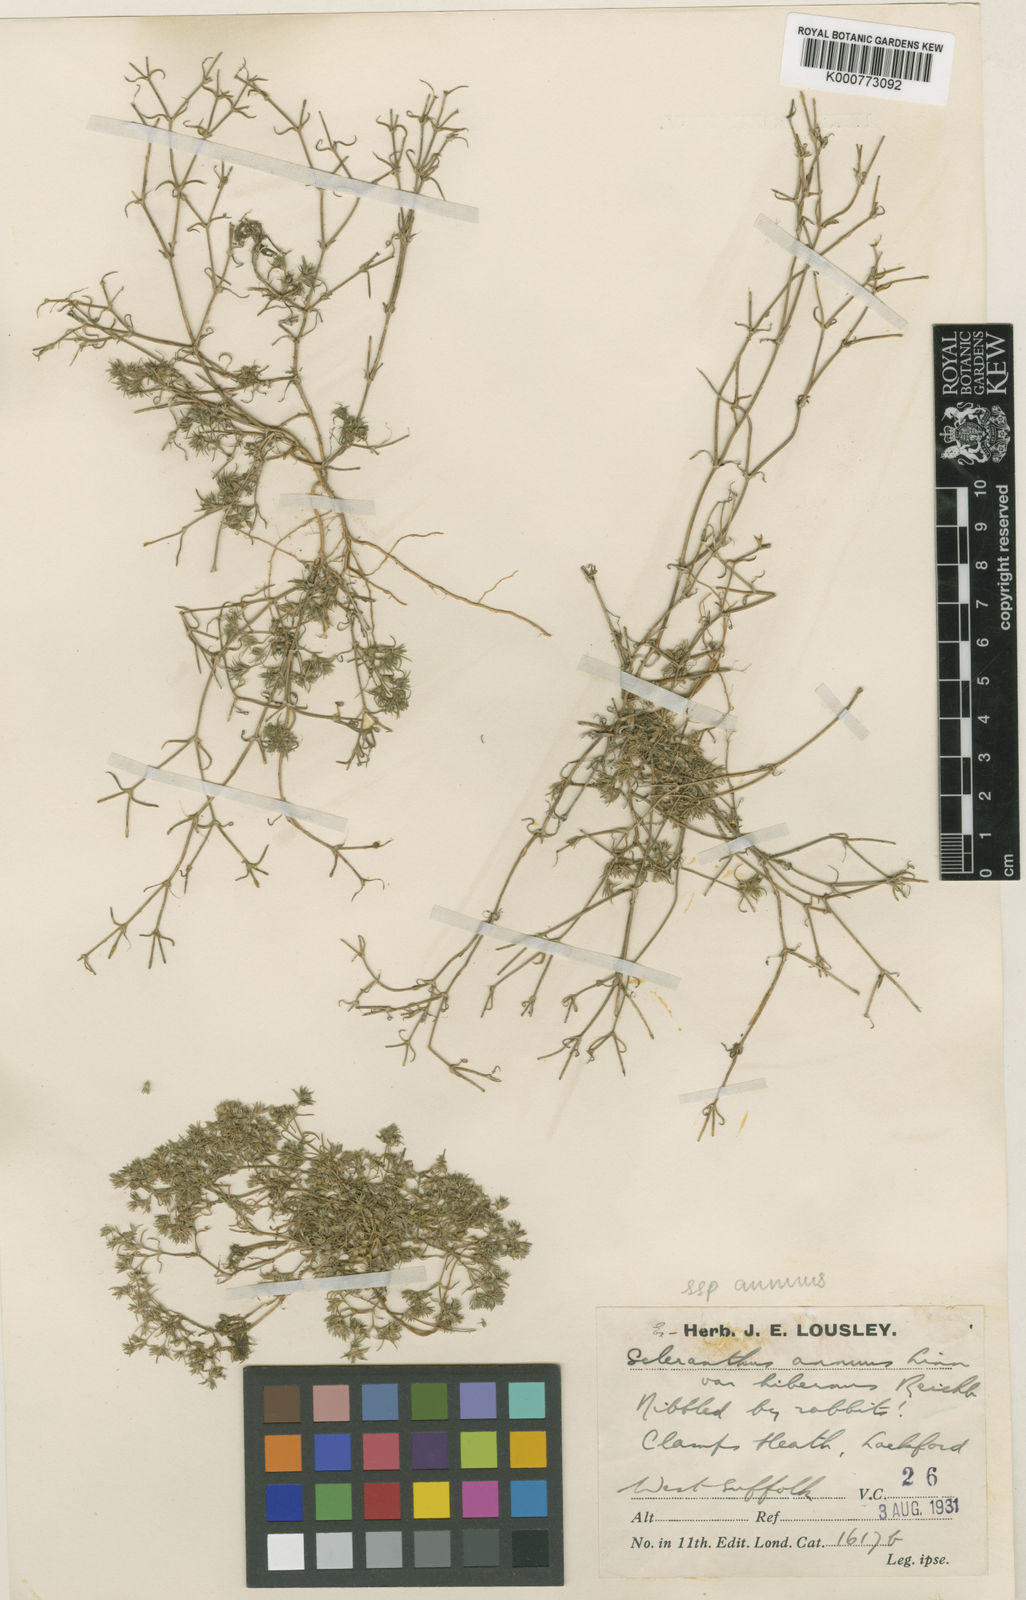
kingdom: Plantae
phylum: Tracheophyta
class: Magnoliopsida
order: Caryophyllales
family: Caryophyllaceae
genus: Scleranthus
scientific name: Scleranthus annuus
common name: Annual knawel
